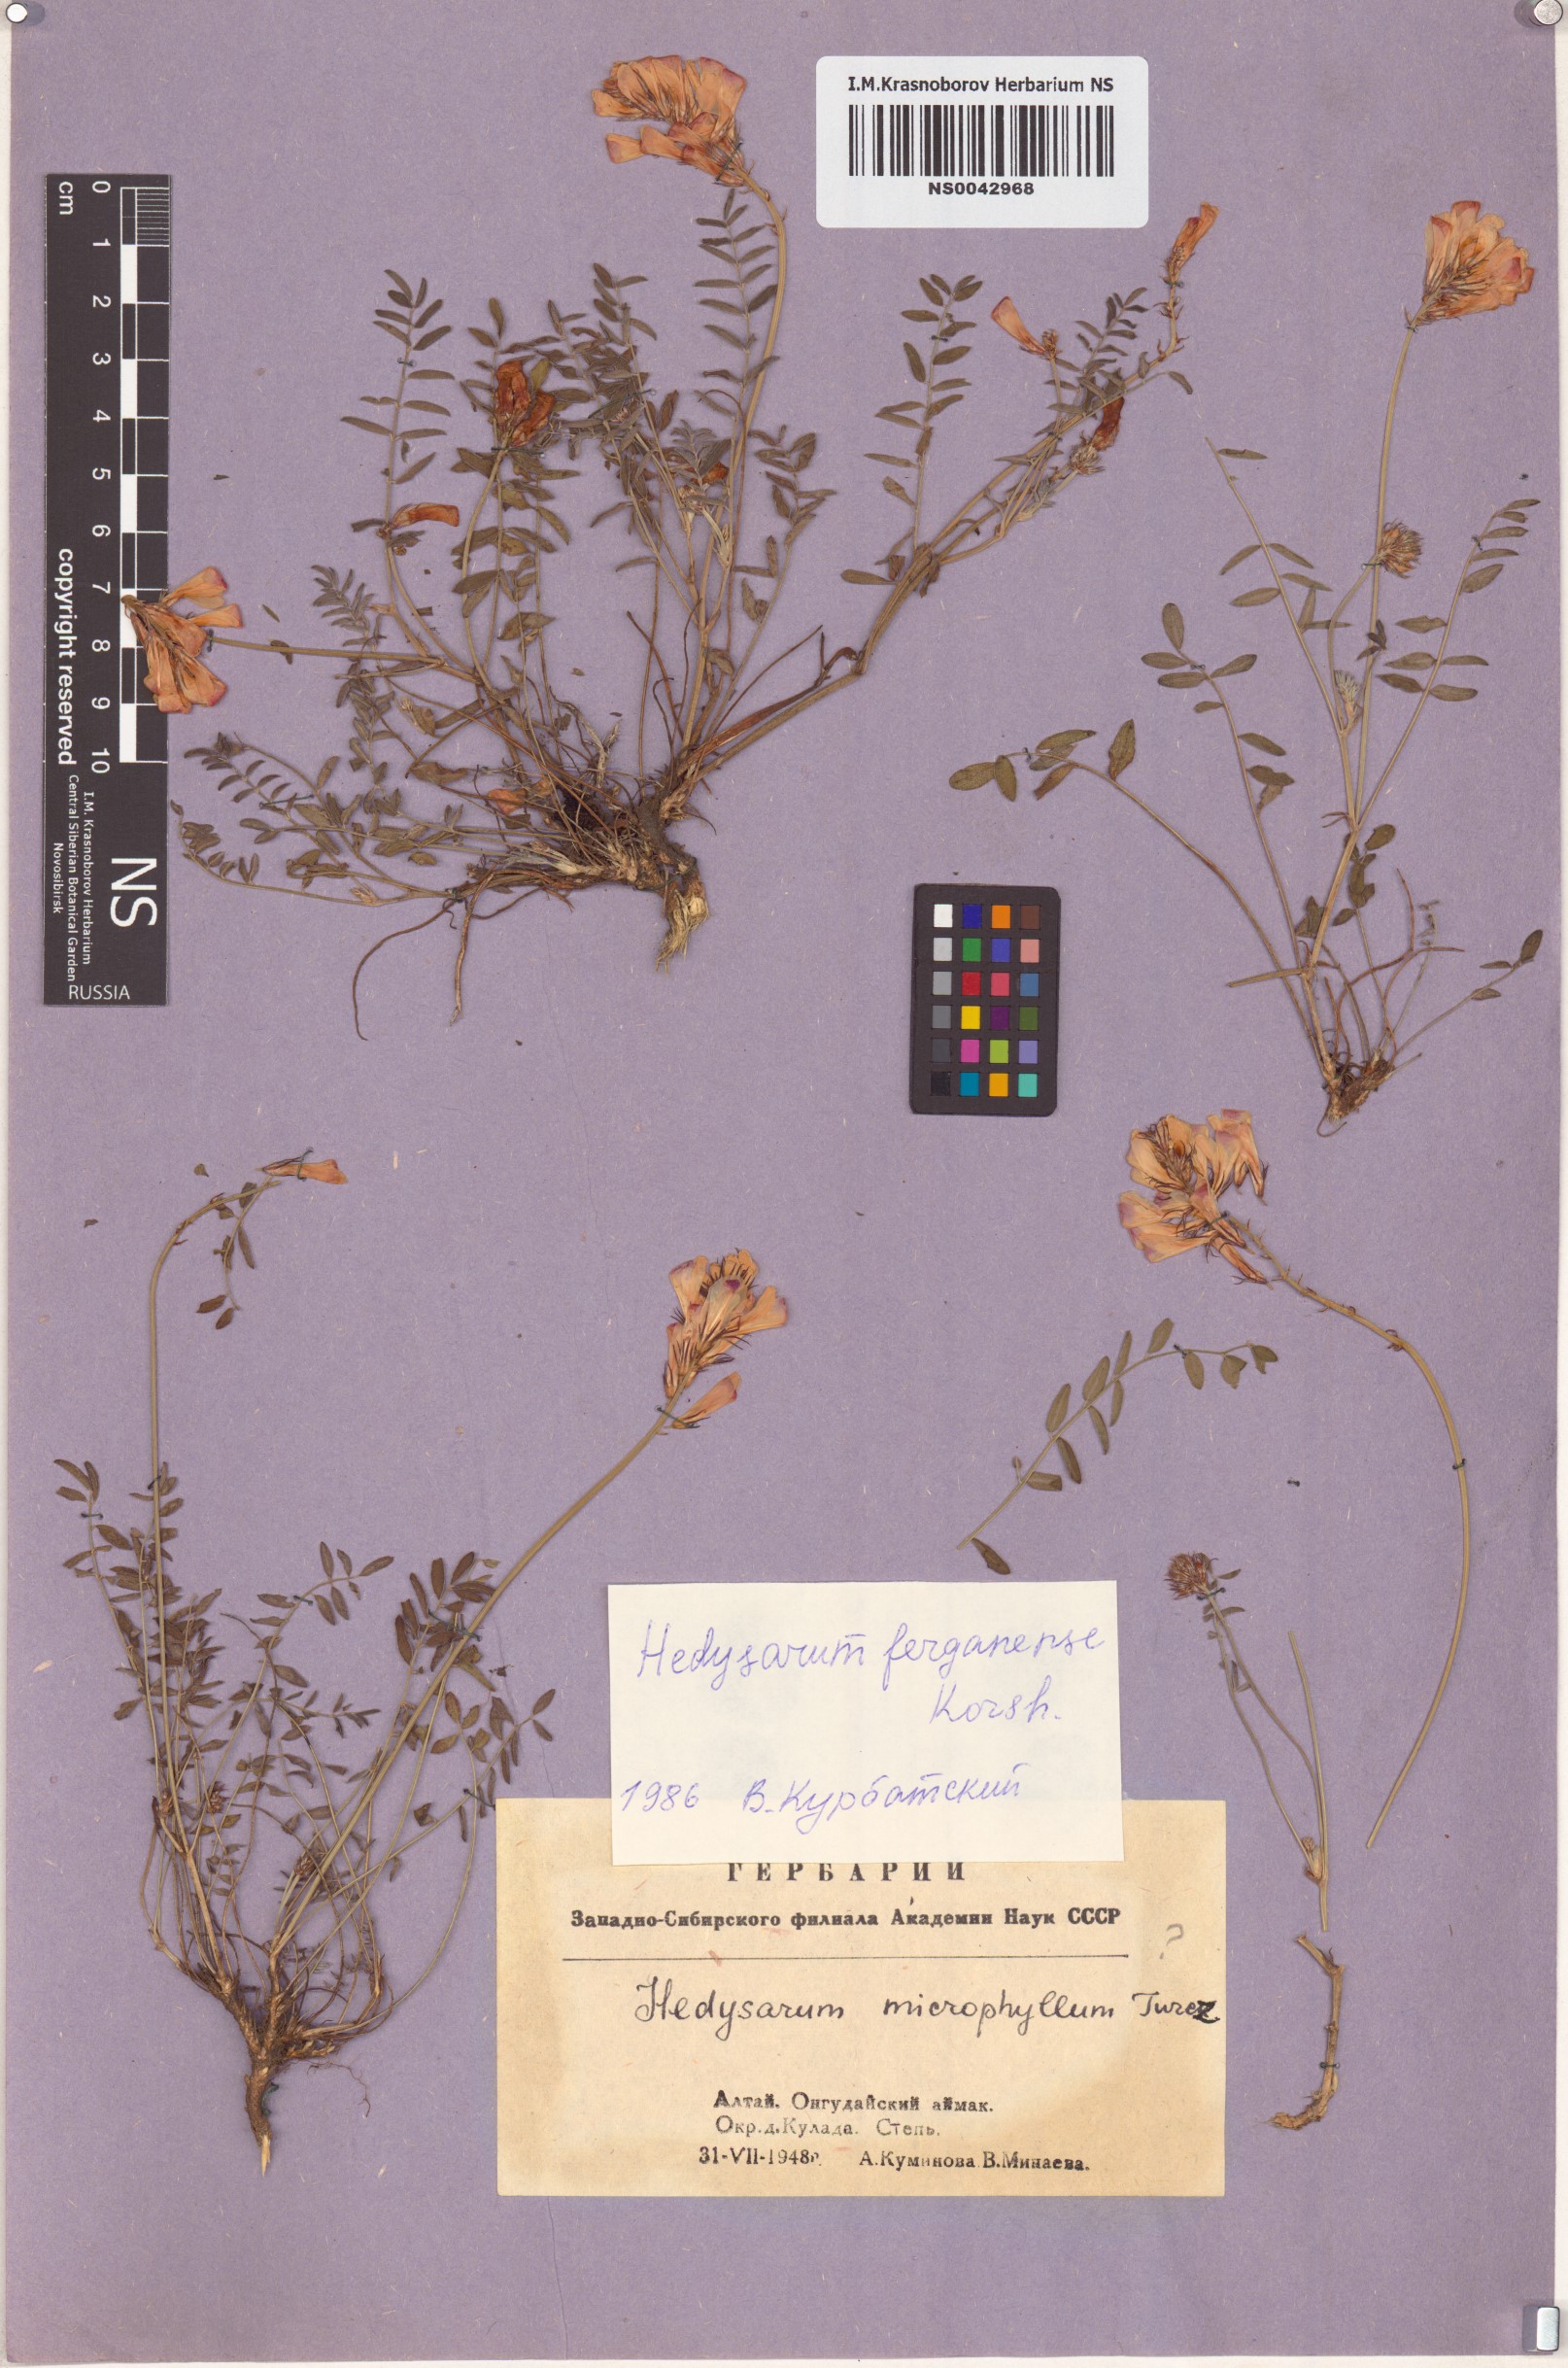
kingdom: Plantae
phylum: Tracheophyta
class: Magnoliopsida
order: Fabales
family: Fabaceae
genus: Hedysarum
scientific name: Hedysarum ferganense
